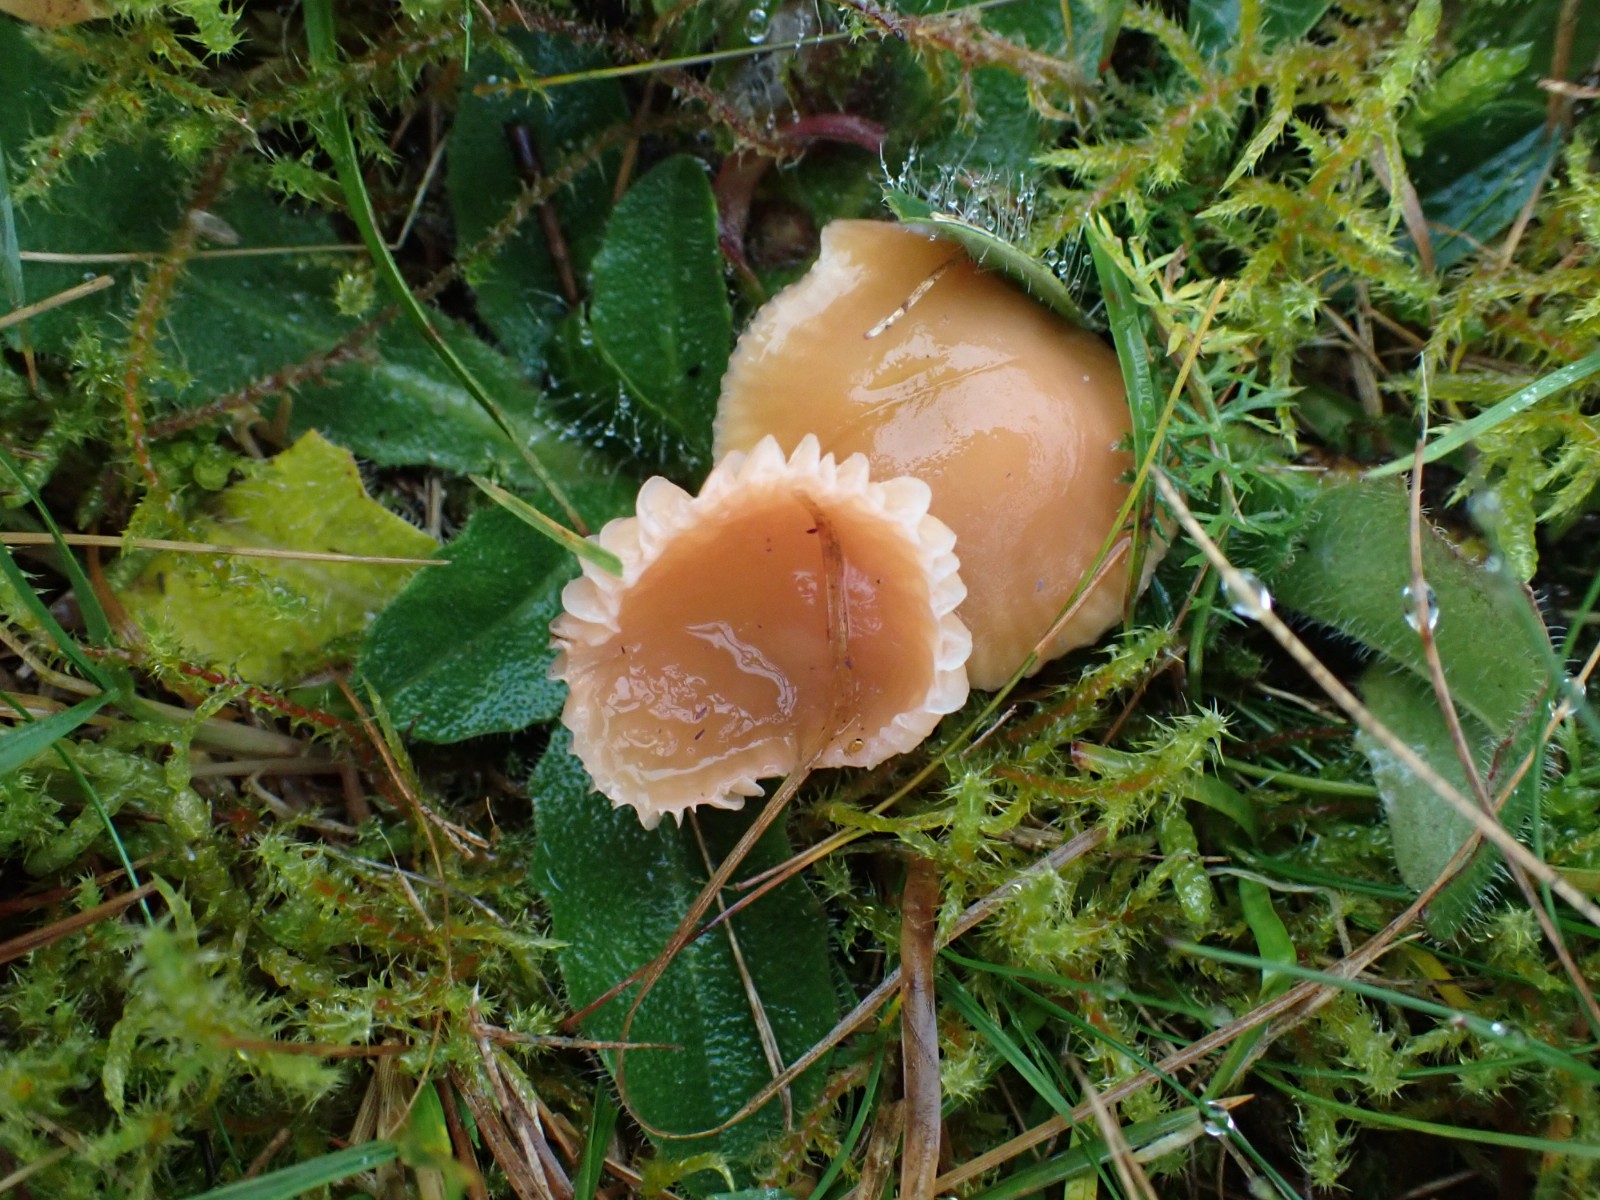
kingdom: Fungi
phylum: Basidiomycota
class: Agaricomycetes
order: Agaricales
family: Hygrophoraceae
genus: Gliophorus
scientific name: Gliophorus laetus
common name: brusk-vokshat
